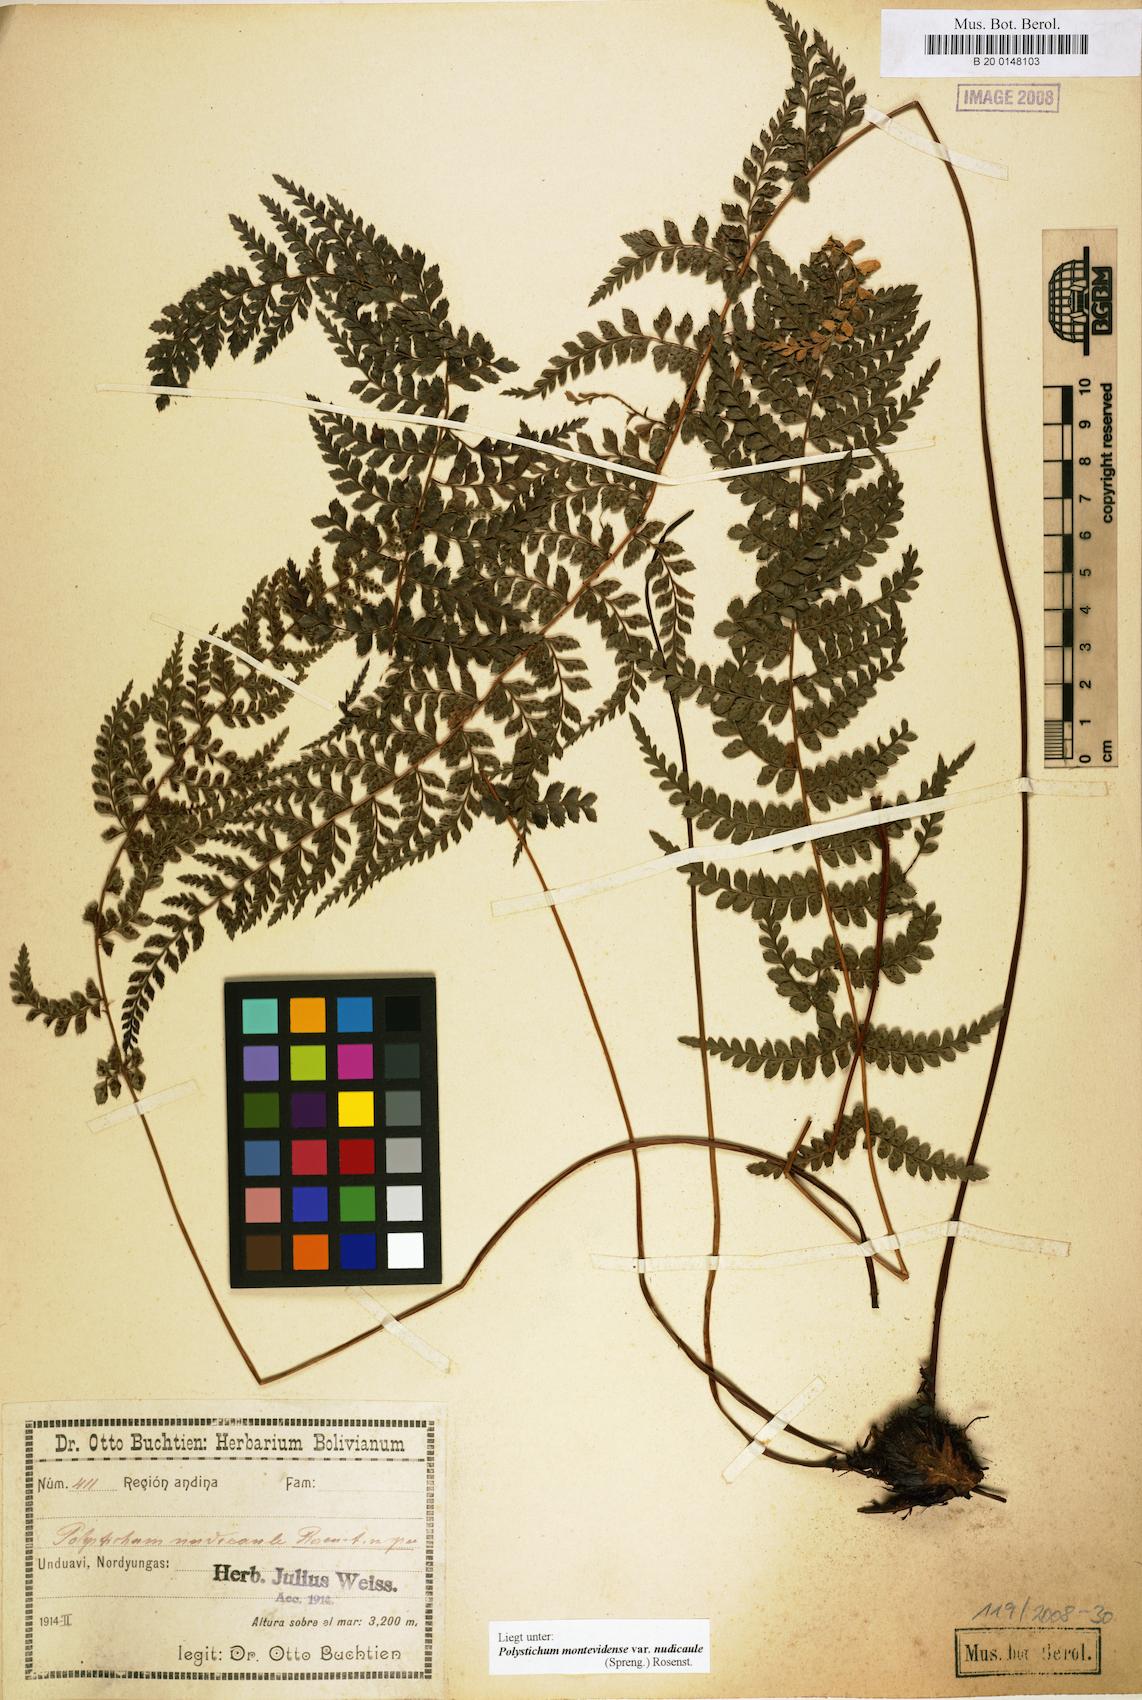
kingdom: Plantae
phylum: Tracheophyta
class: Polypodiopsida
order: Polypodiales
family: Dryopteridaceae
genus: Polystichum
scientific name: Polystichum nudicaule
